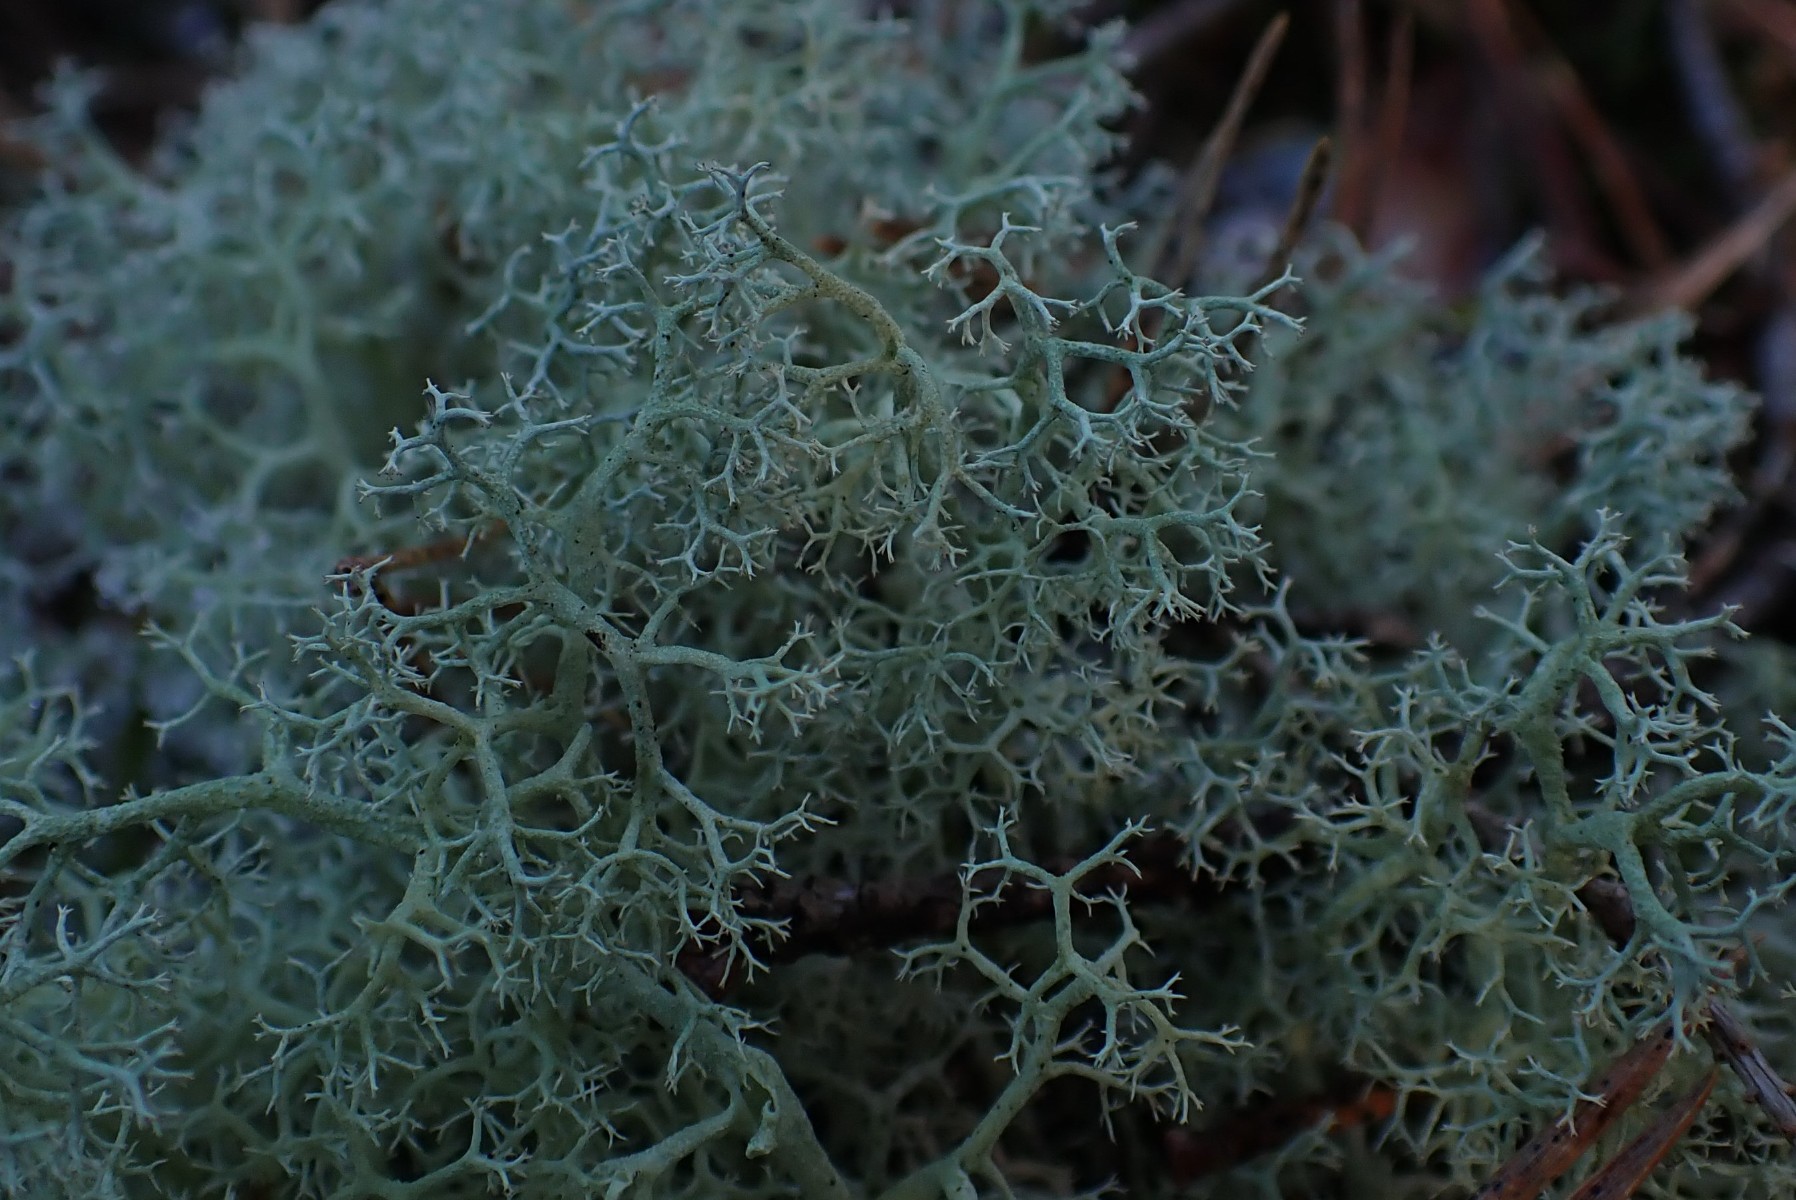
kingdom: Fungi
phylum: Ascomycota
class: Lecanoromycetes
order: Lecanorales
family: Cladoniaceae
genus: Cladonia
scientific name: Cladonia portentosa
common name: hede-rensdyrlav
